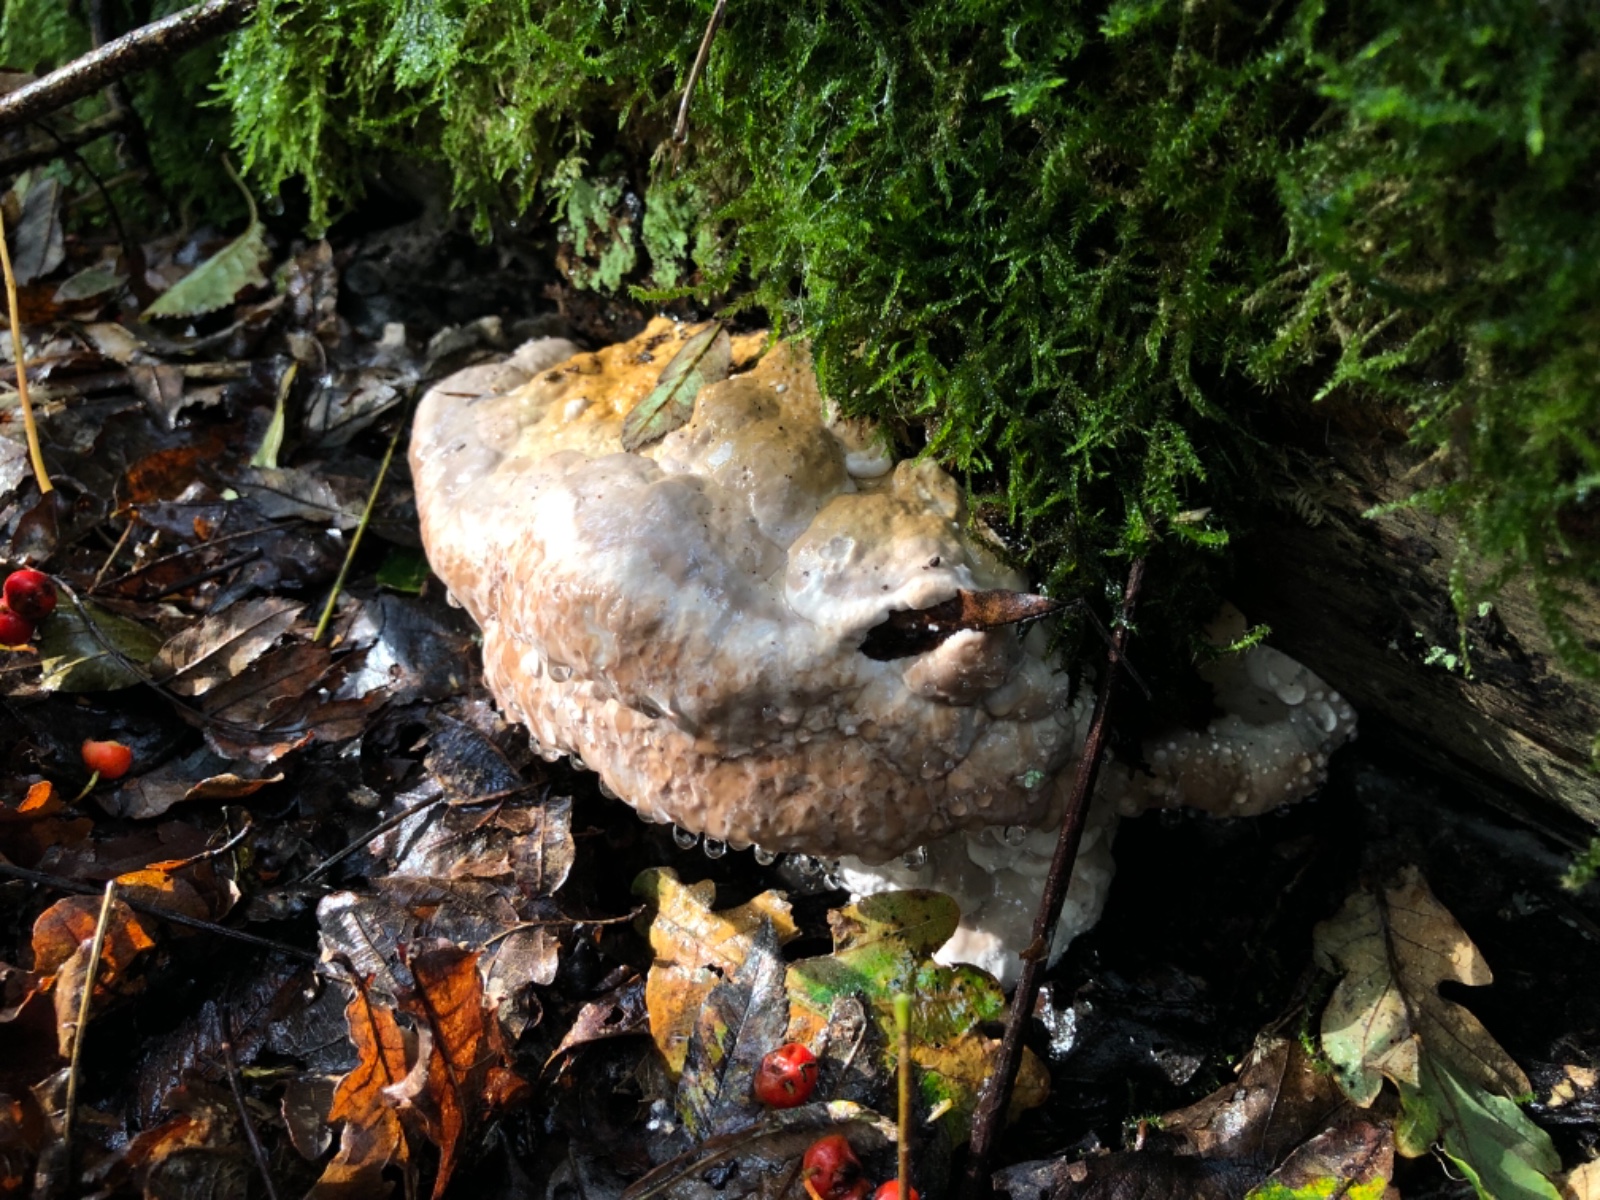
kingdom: Fungi
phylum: Basidiomycota
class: Agaricomycetes
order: Polyporales
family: Fomitopsidaceae
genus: Fomitopsis
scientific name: Fomitopsis pinicola
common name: randbæltet hovporesvamp
